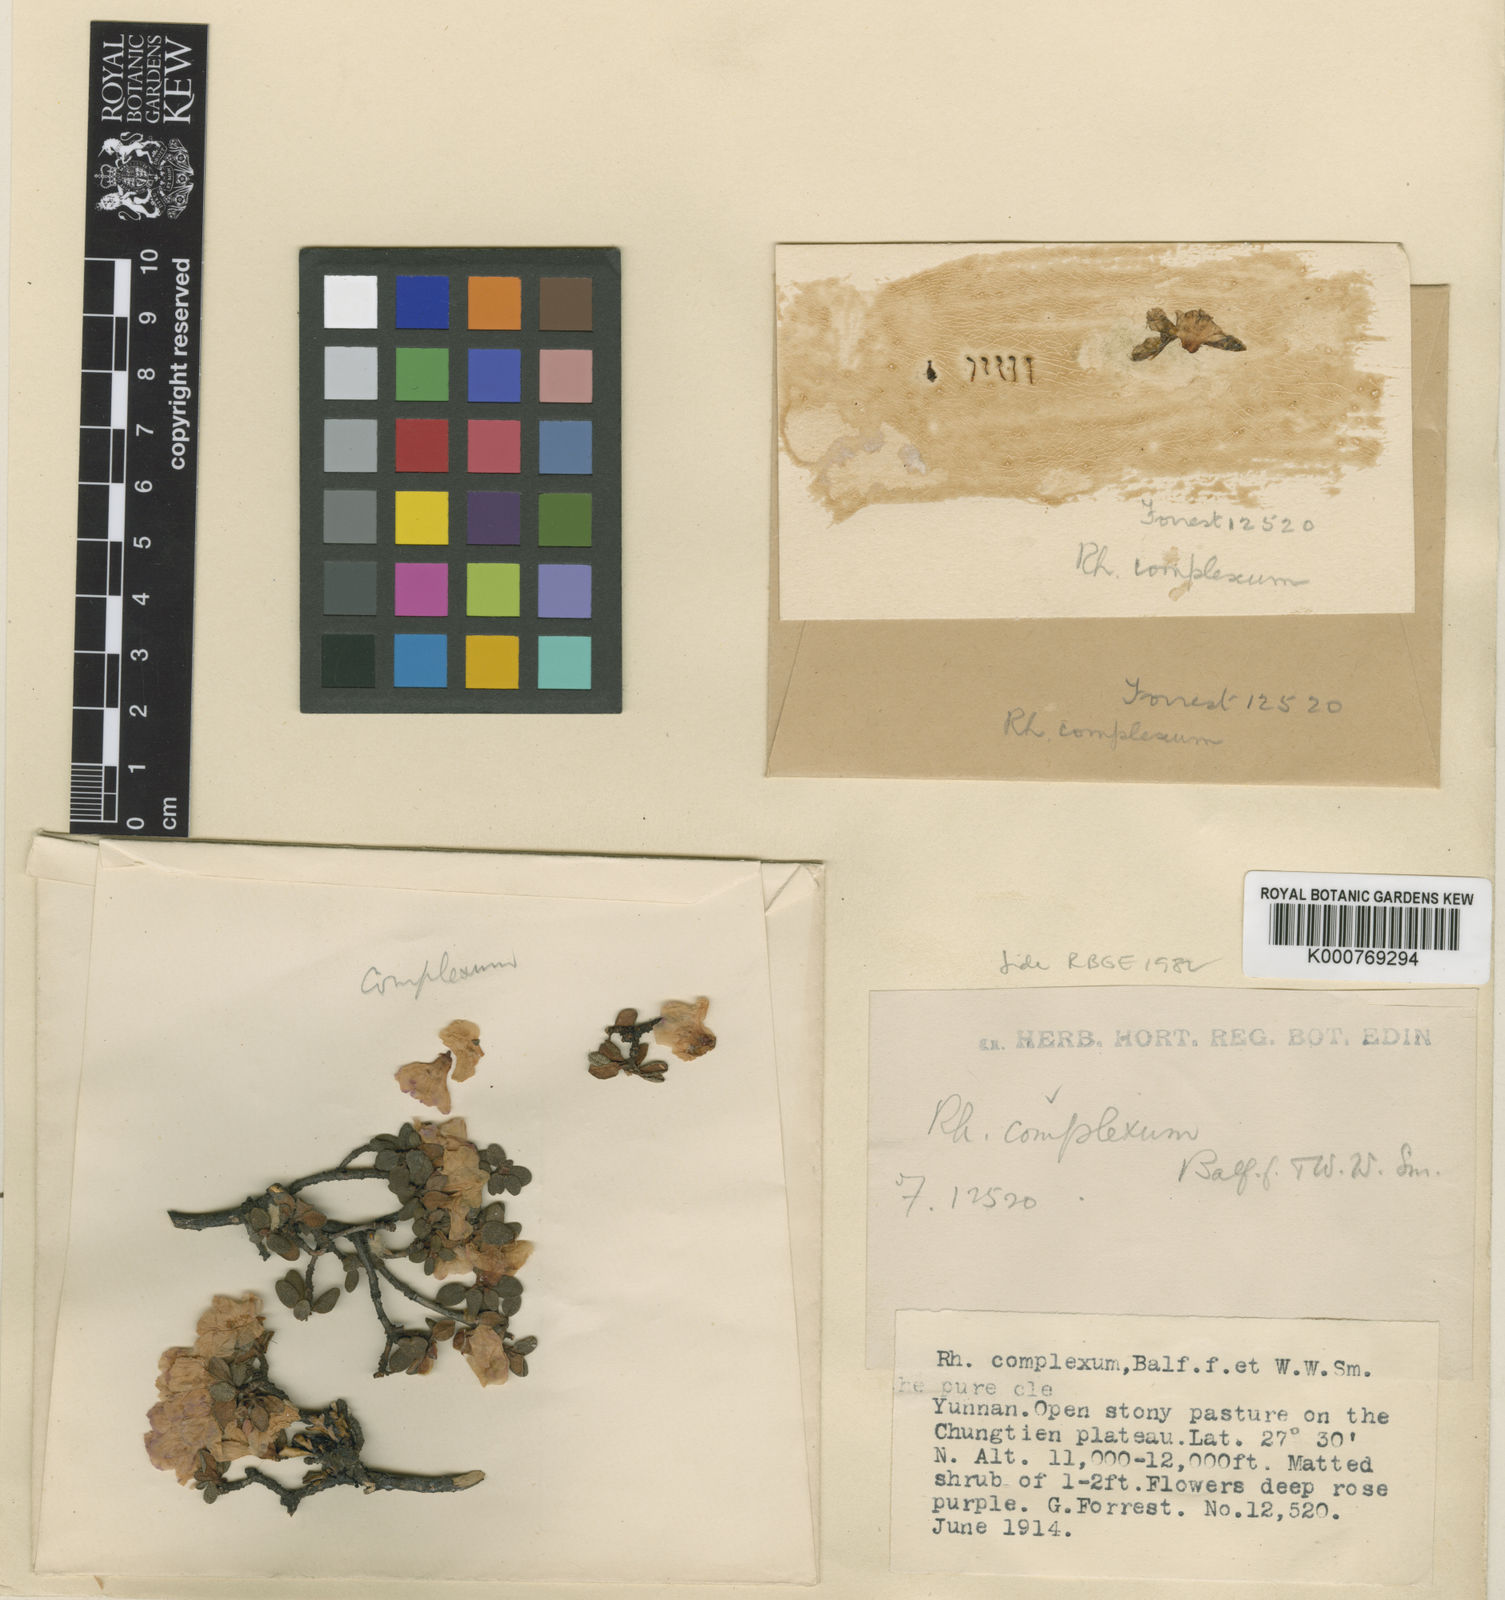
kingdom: Plantae
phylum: Tracheophyta
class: Magnoliopsida
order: Ericales
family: Ericaceae
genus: Rhododendron
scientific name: Rhododendron complexum
